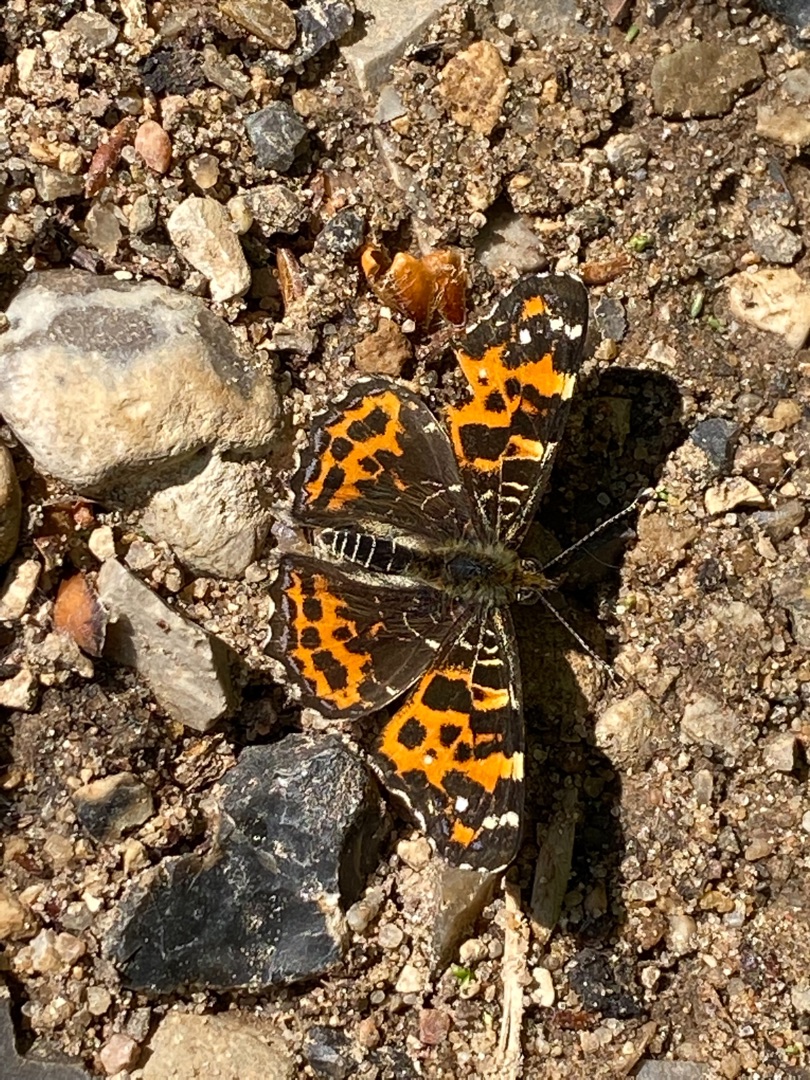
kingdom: Animalia
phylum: Arthropoda
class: Insecta
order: Lepidoptera
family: Nymphalidae
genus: Araschnia
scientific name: Araschnia levana
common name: Nældesommerfugl
